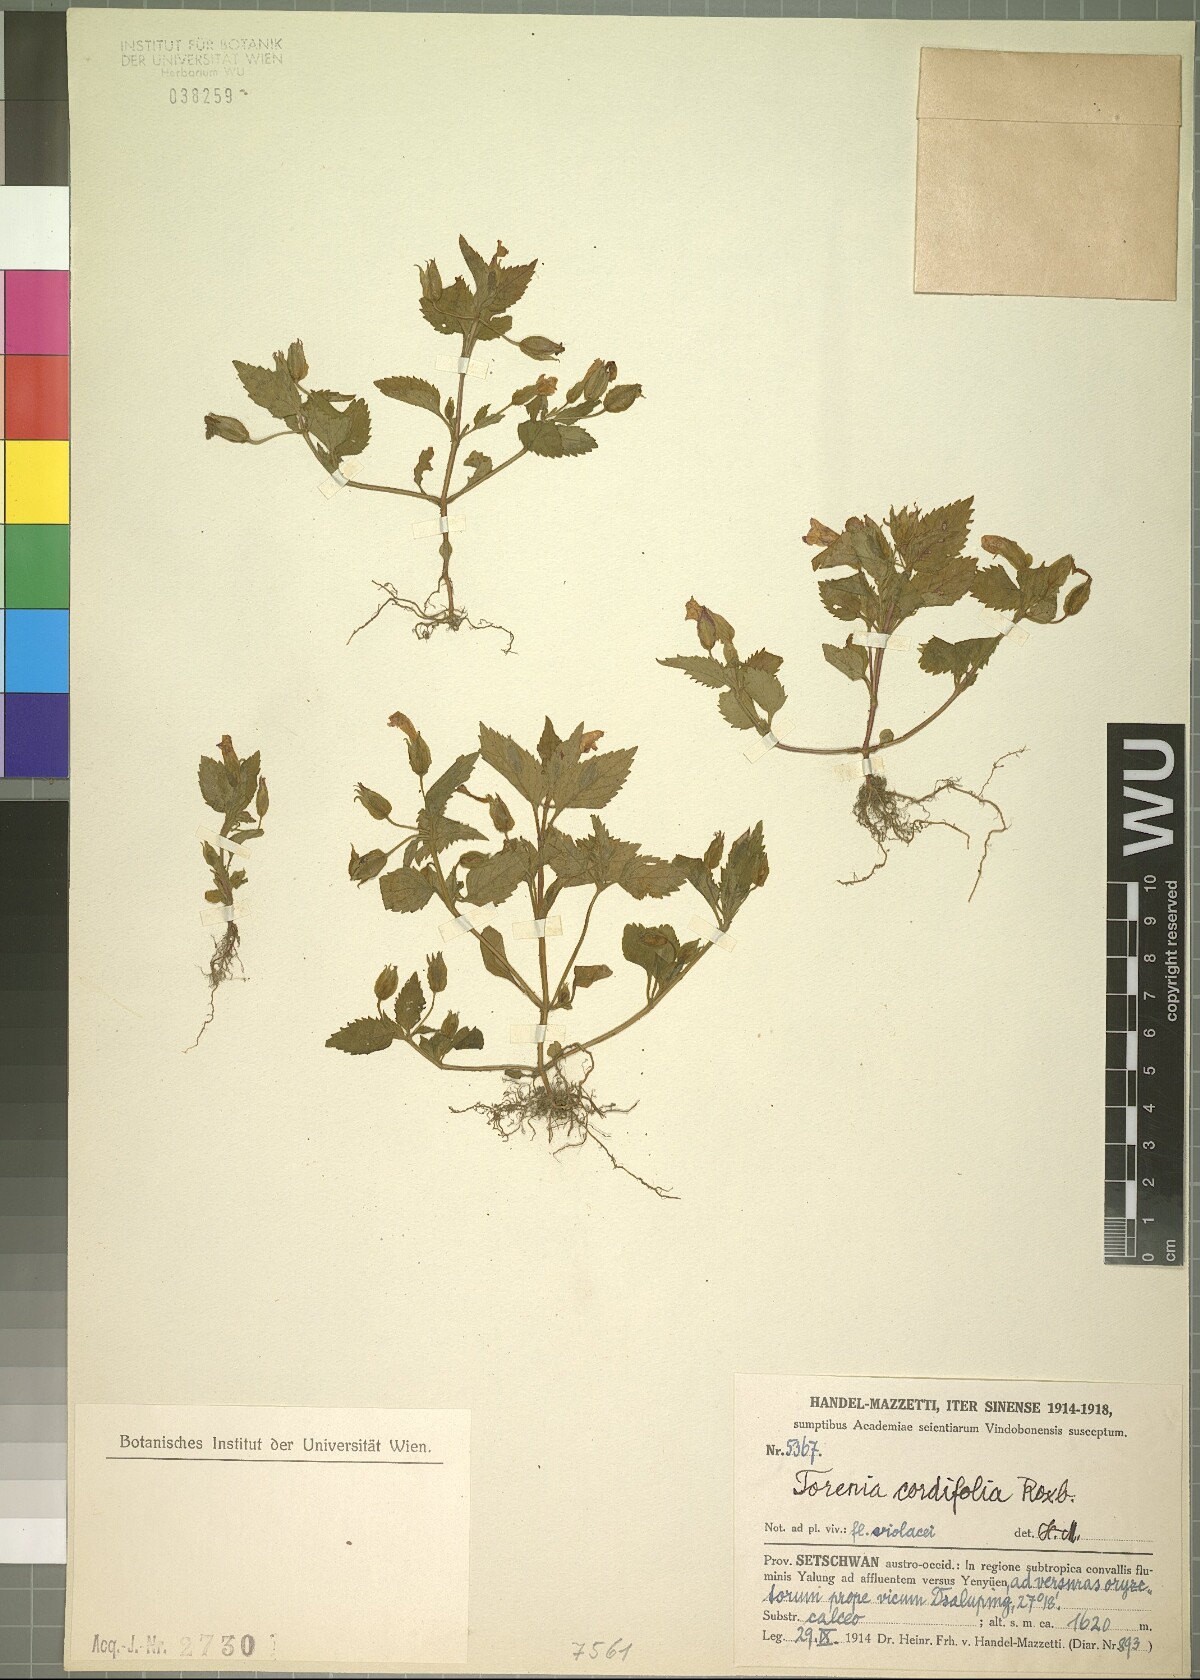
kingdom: Plantae
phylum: Tracheophyta
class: Magnoliopsida
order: Lamiales
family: Linderniaceae
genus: Torenia
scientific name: Torenia cordifolia
